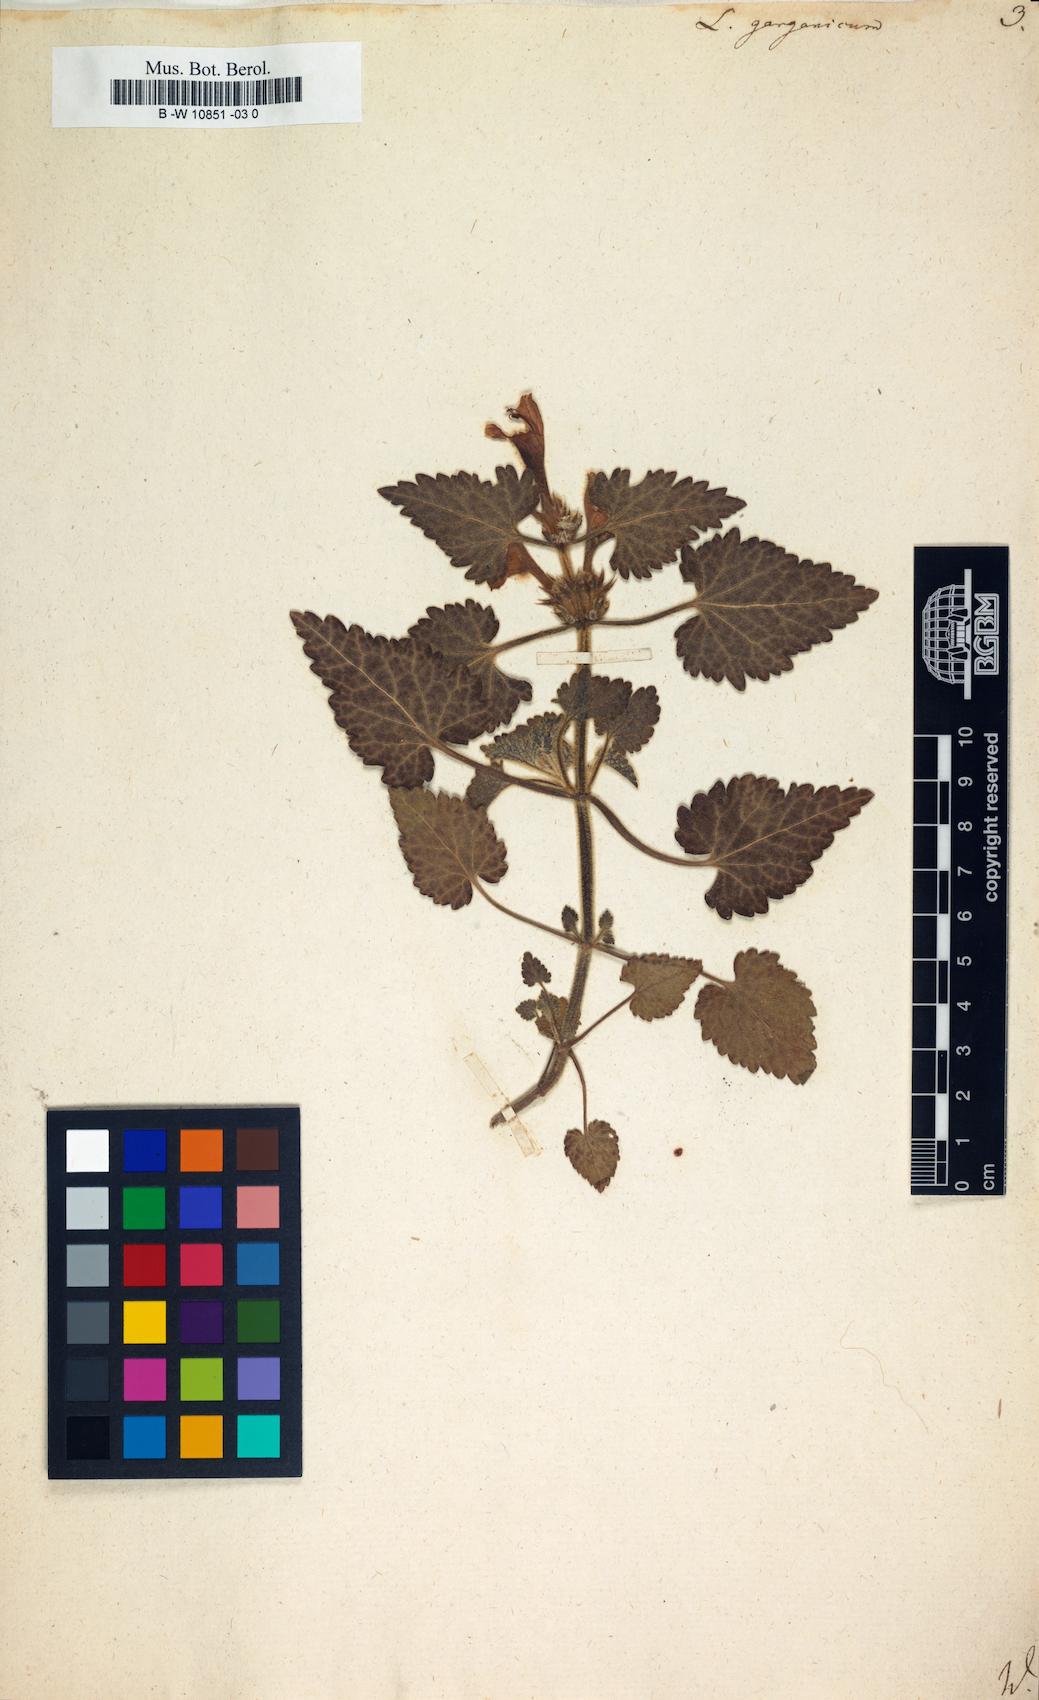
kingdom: Plantae
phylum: Tracheophyta
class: Magnoliopsida
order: Lamiales
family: Lamiaceae
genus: Lamium
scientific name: Lamium garganicum
